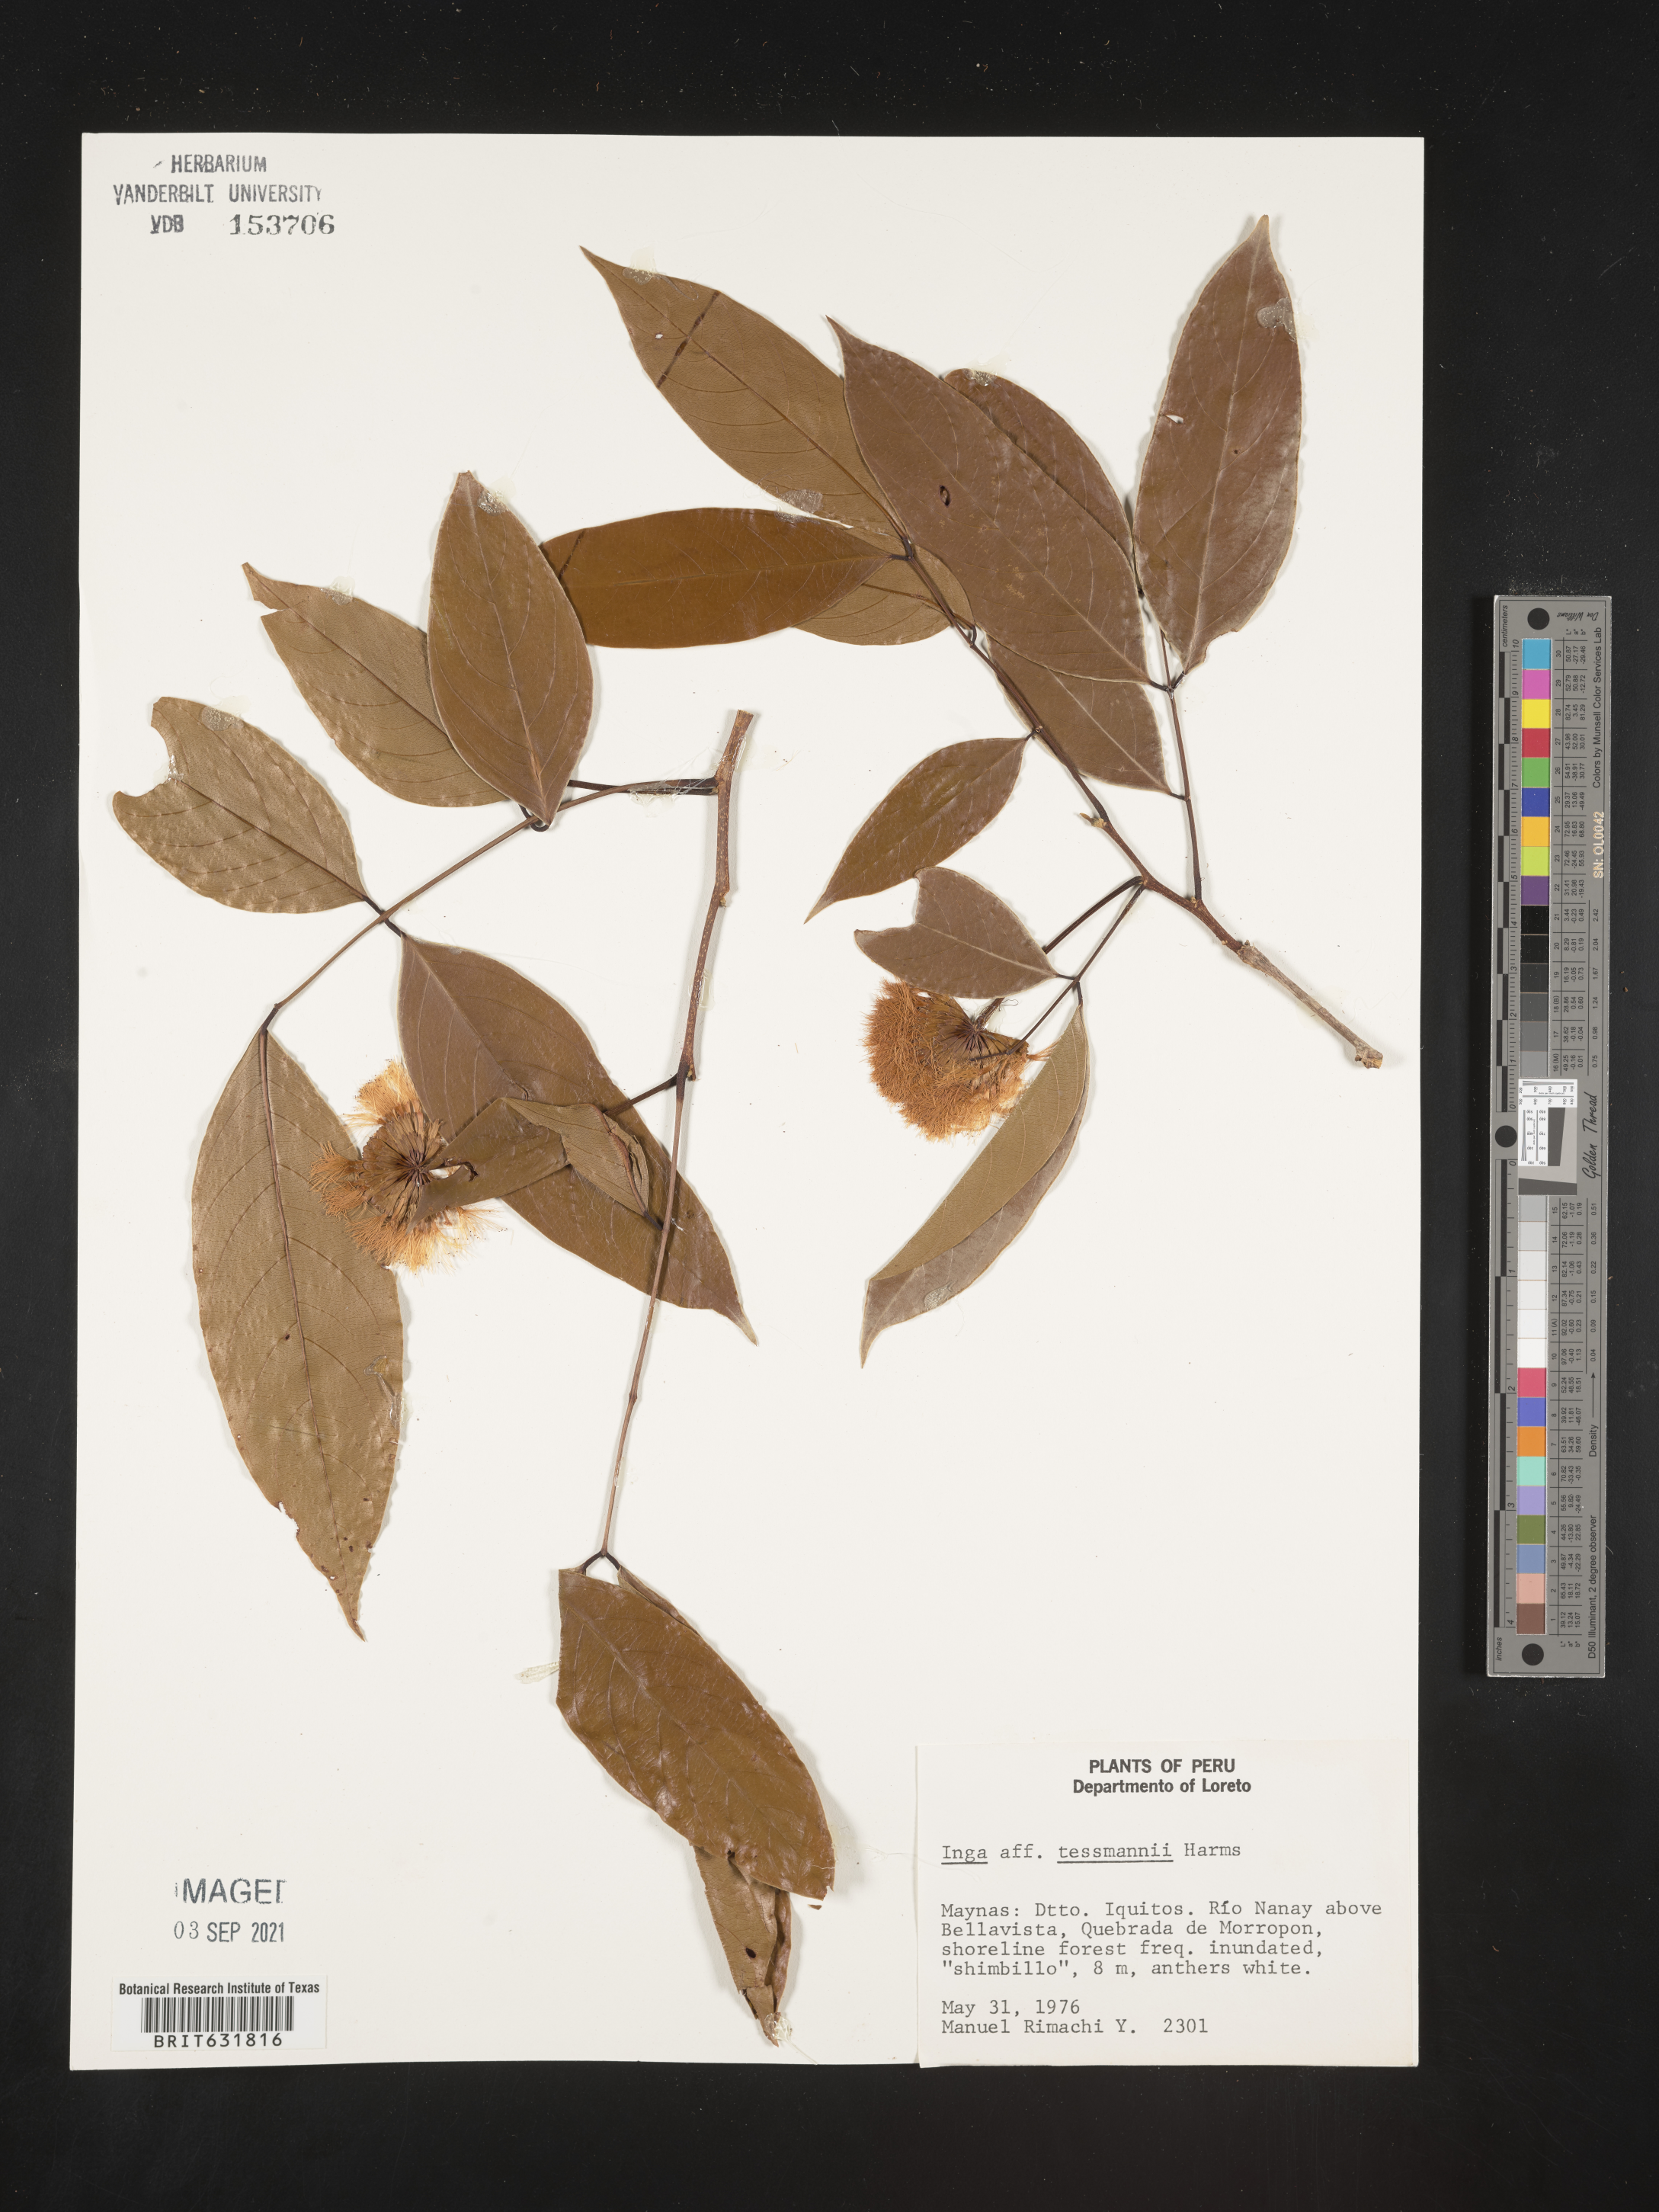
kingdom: Plantae
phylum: Tracheophyta
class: Magnoliopsida
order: Fabales
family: Fabaceae
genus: Inga
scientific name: Inga
